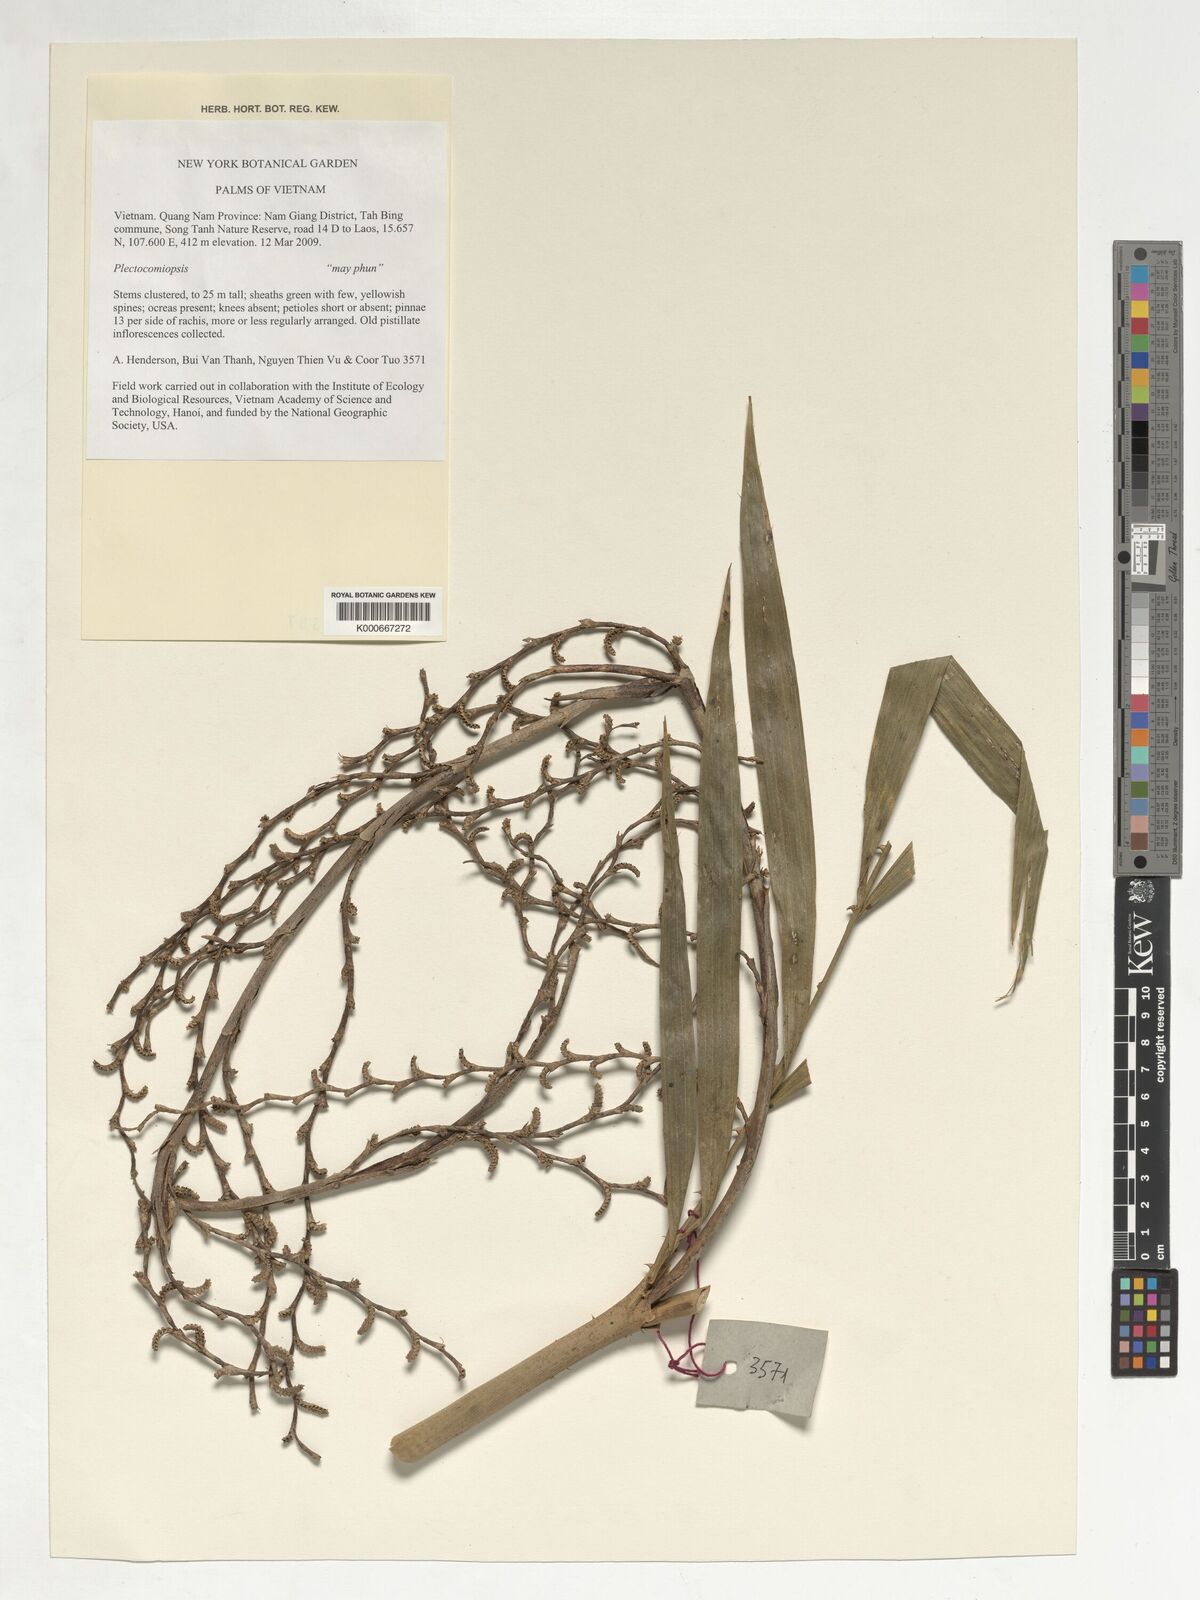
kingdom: Plantae
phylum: Tracheophyta
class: Liliopsida
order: Arecales
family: Arecaceae
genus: Plectocomiopsis
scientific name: Plectocomiopsis
